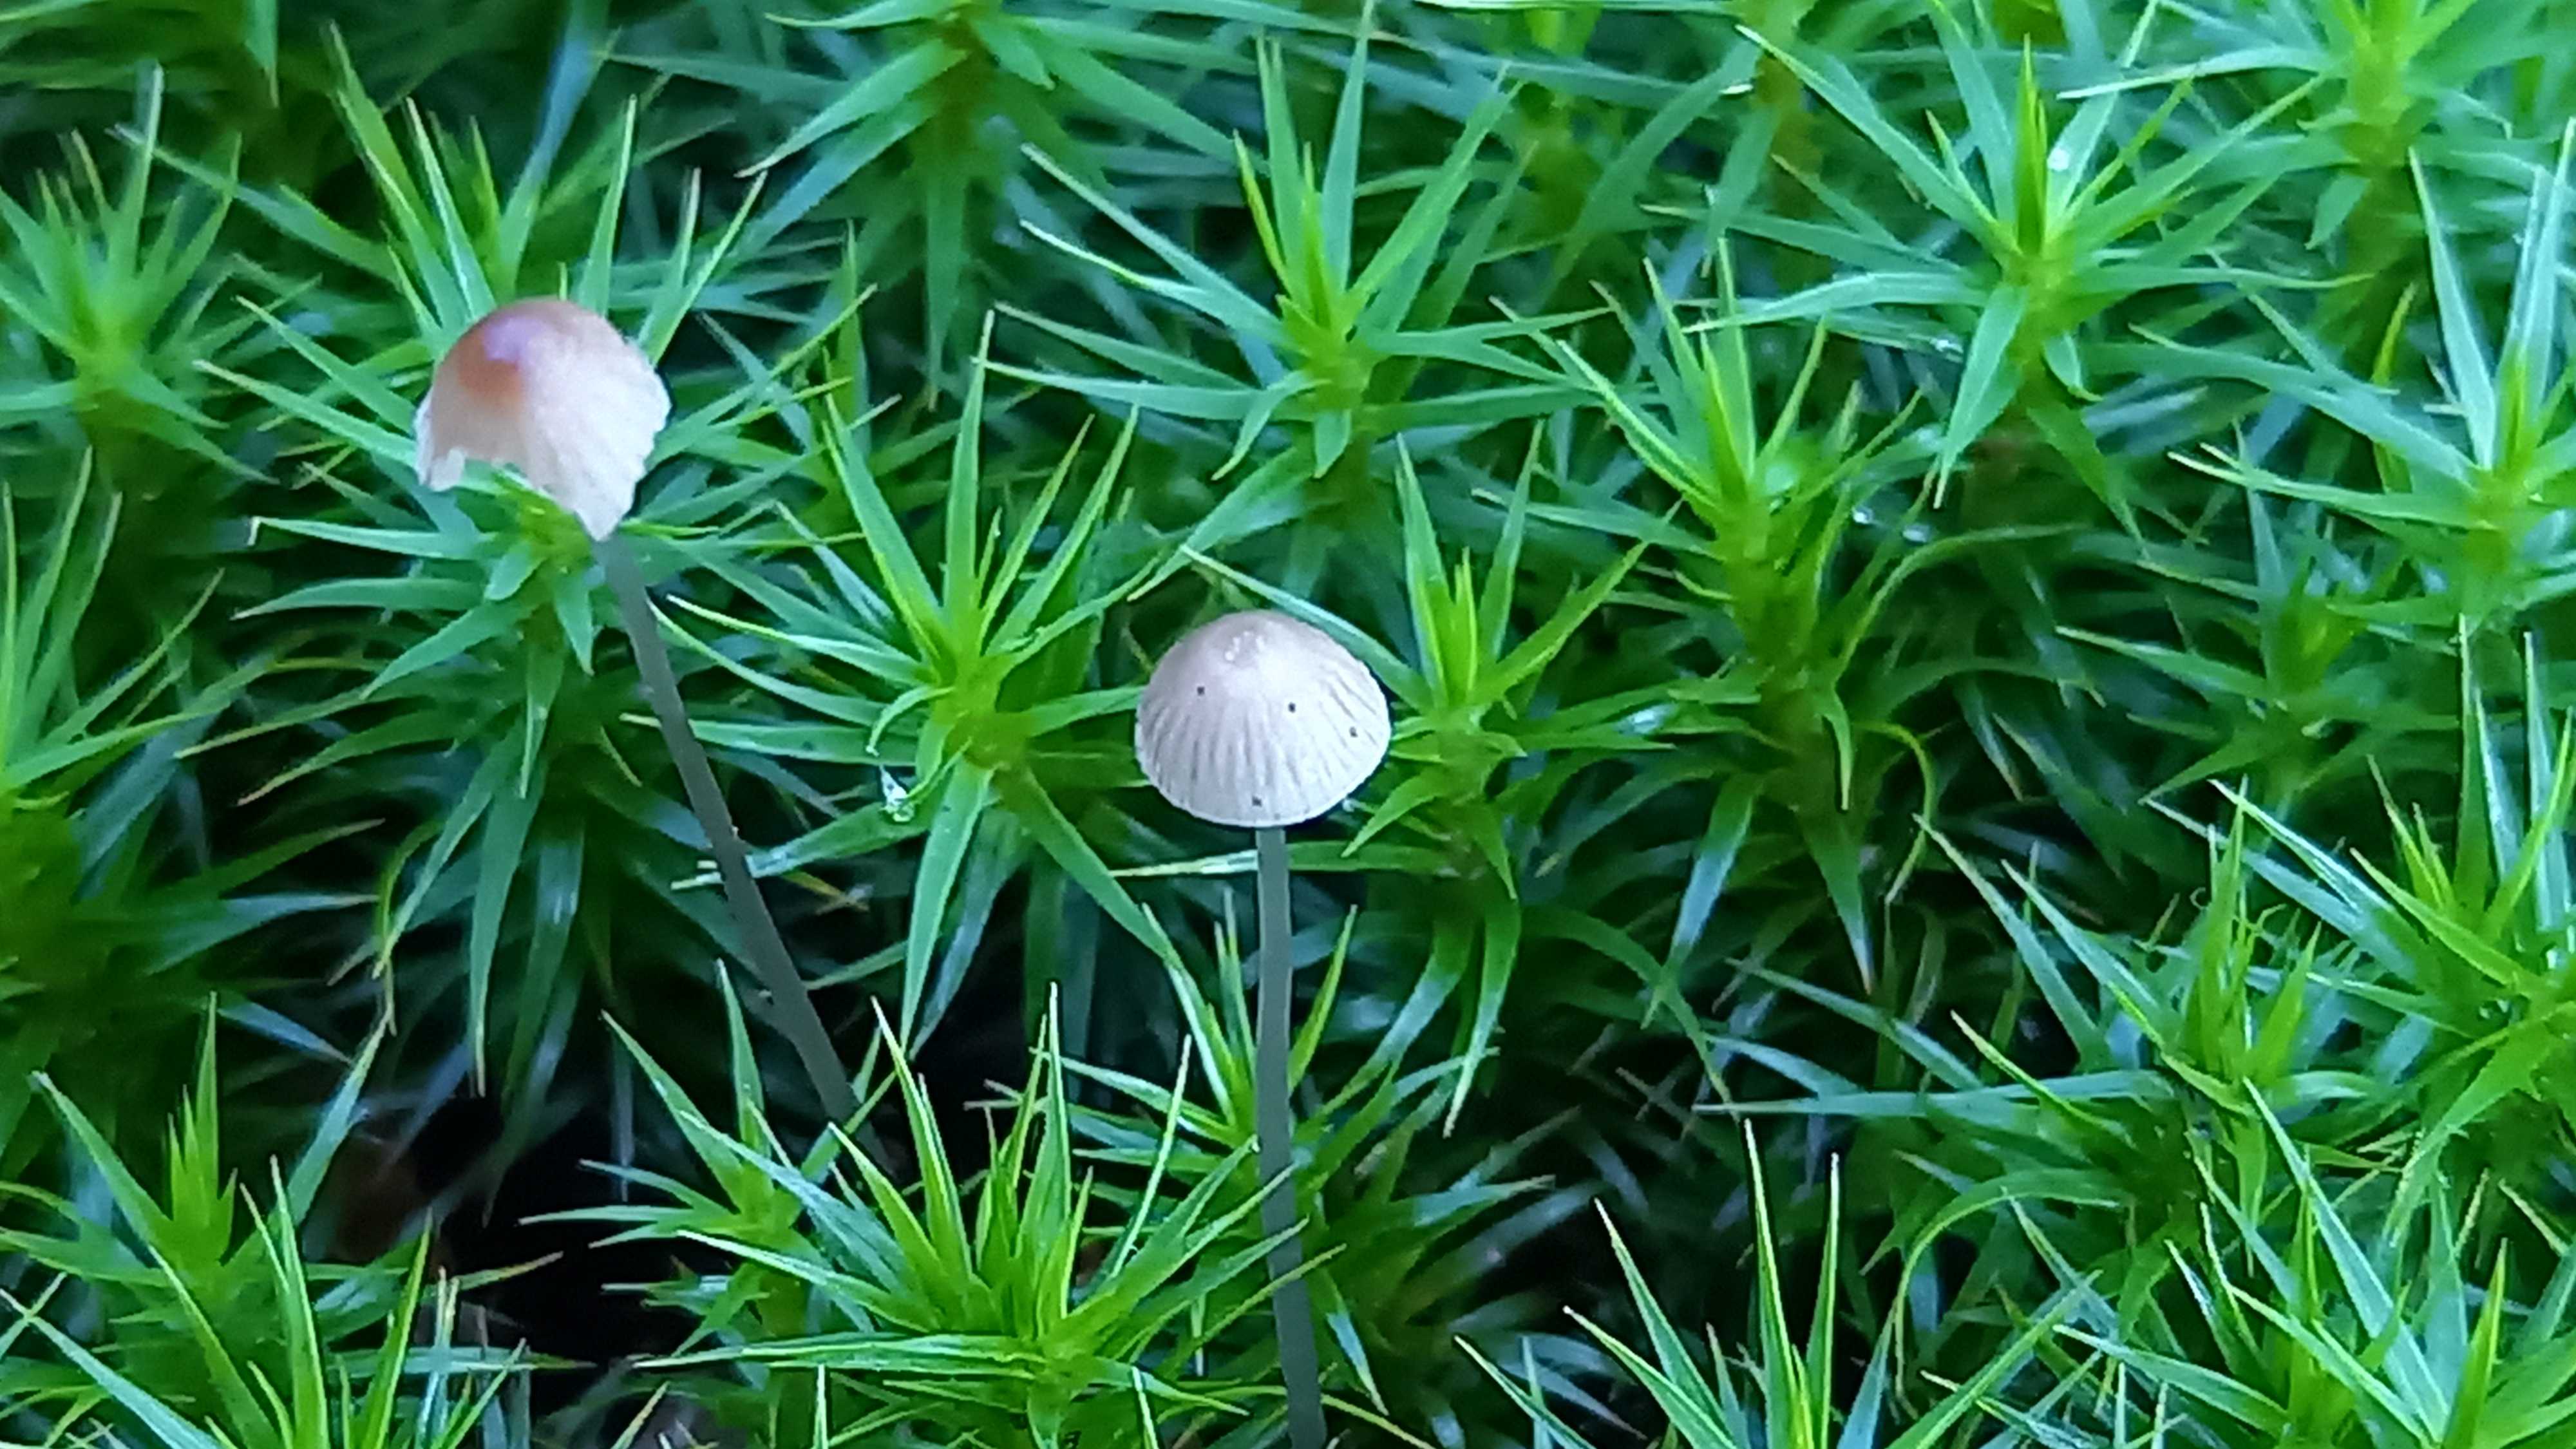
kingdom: Fungi
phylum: Basidiomycota
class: Agaricomycetes
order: Agaricales
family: Mycenaceae
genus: Mycena
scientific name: Mycena
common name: huesvamp
